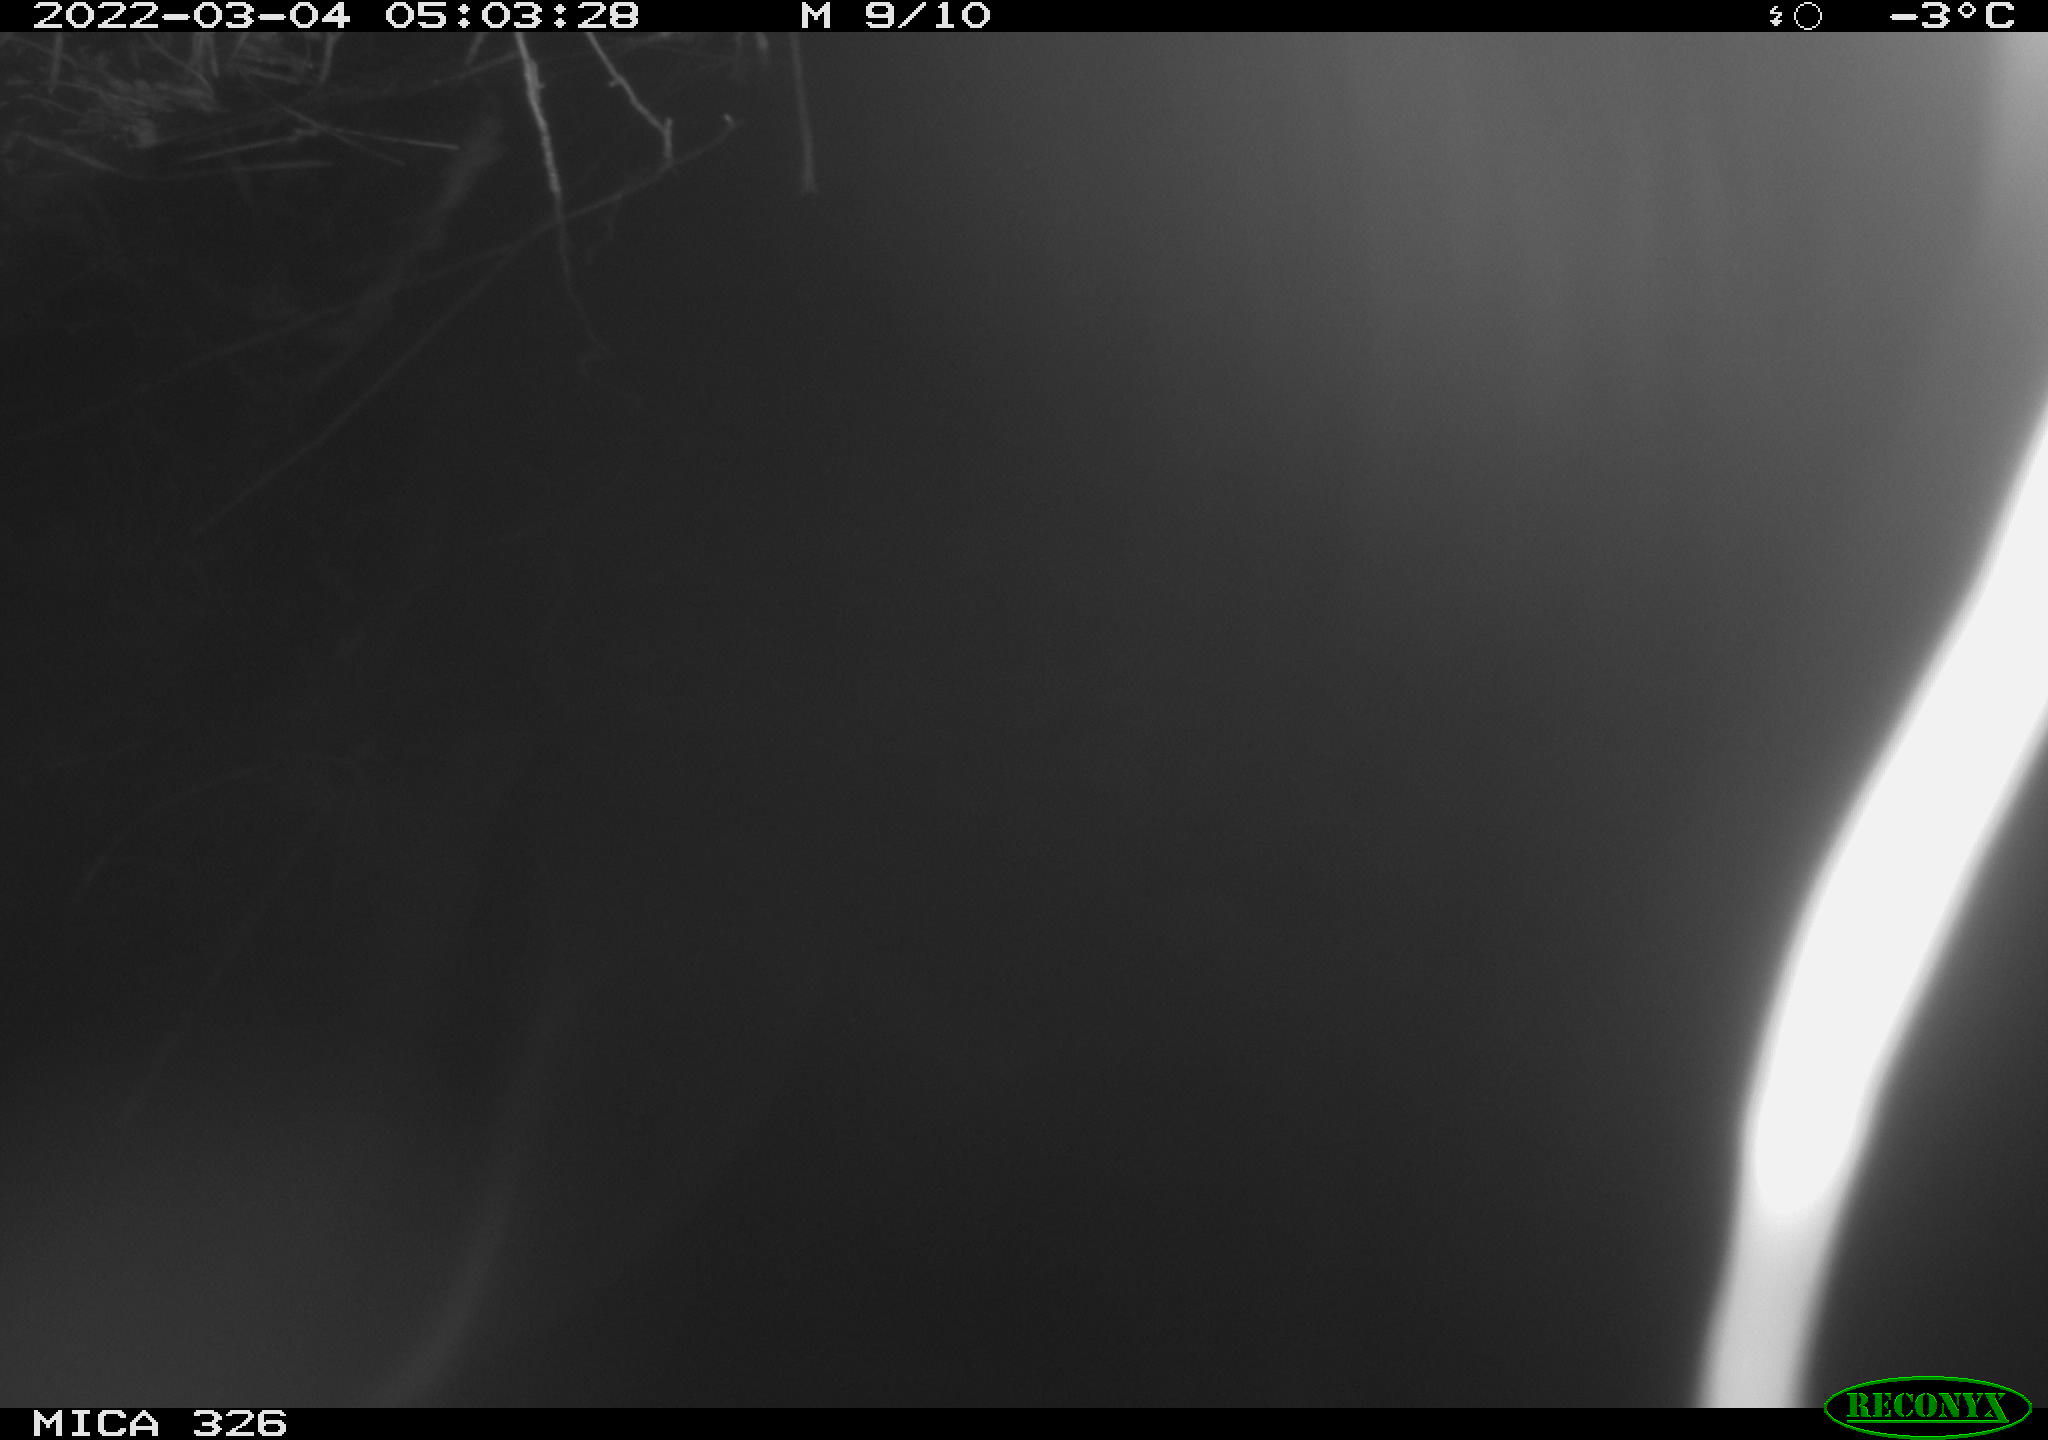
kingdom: Animalia
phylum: Chordata
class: Mammalia
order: Rodentia
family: Cricetidae
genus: Ondatra
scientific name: Ondatra zibethicus
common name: Muskrat
